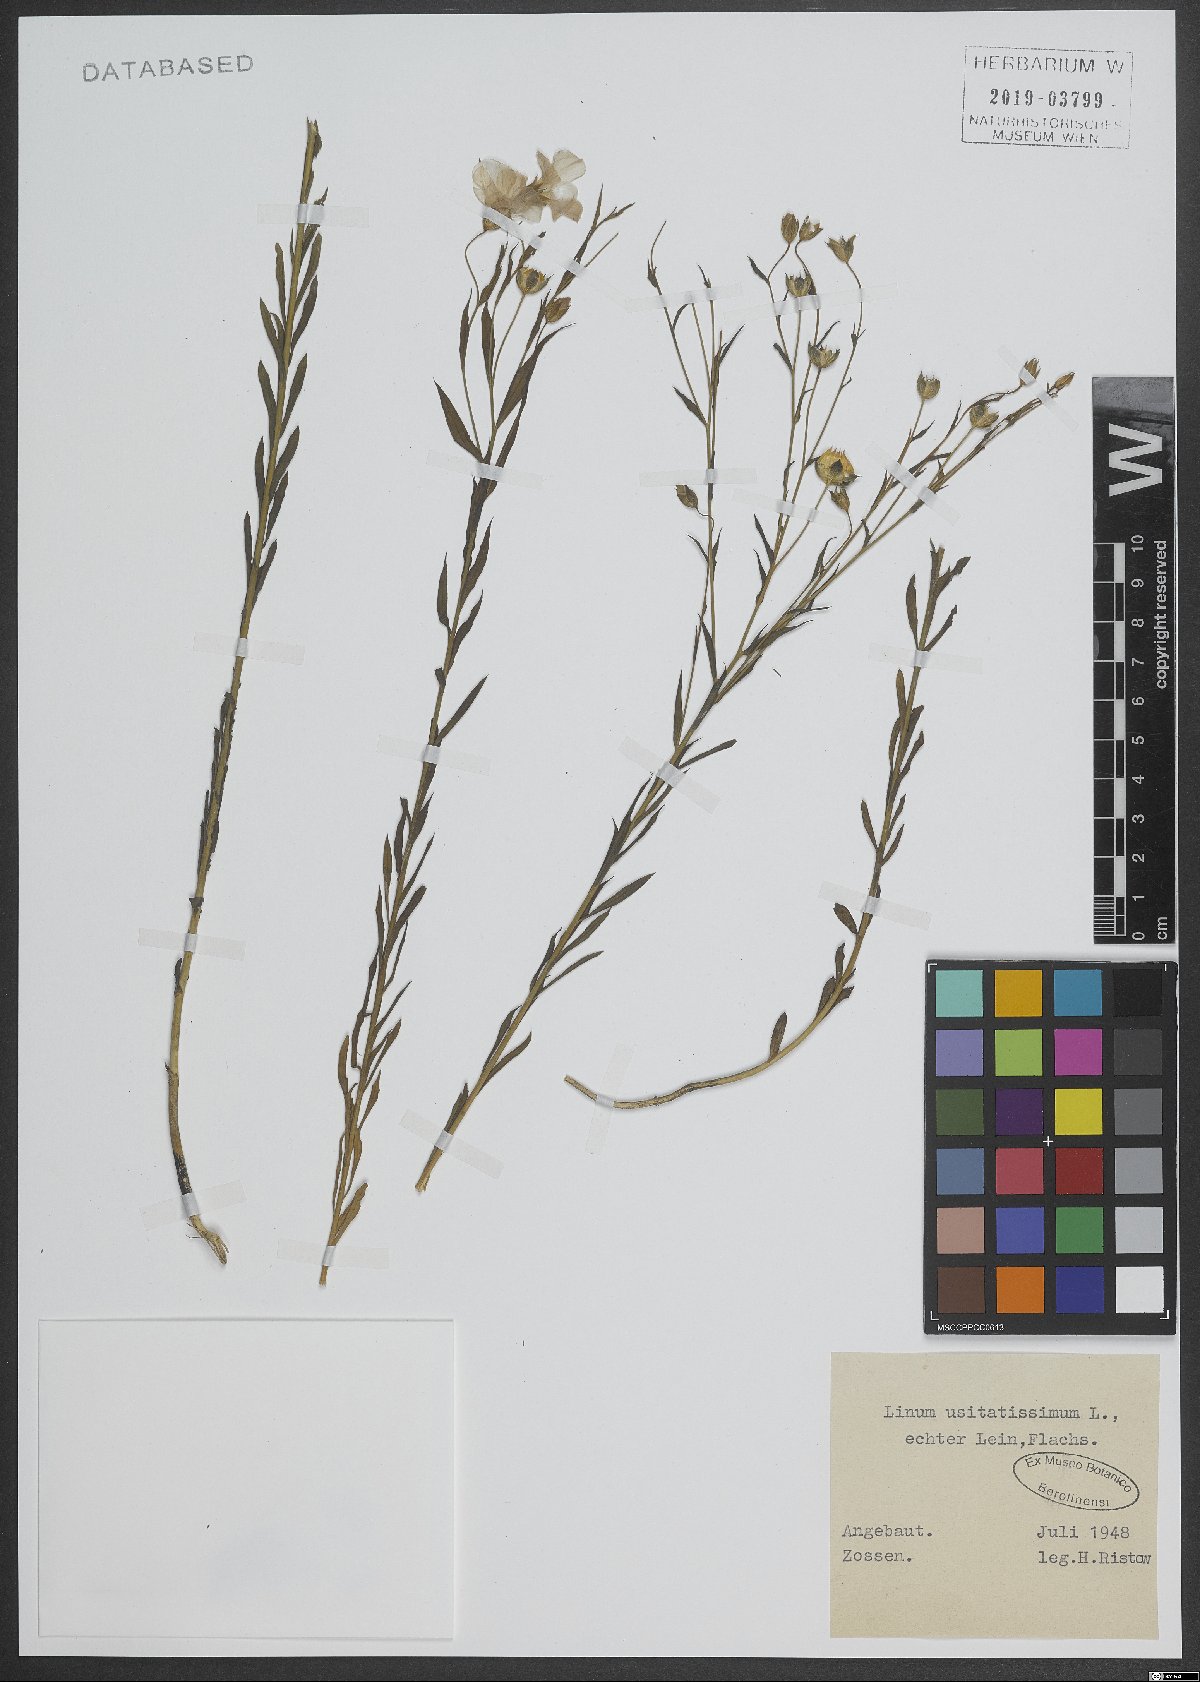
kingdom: Plantae
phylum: Tracheophyta
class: Magnoliopsida
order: Malpighiales
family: Linaceae
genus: Linum
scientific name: Linum usitatissimum
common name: Flax
